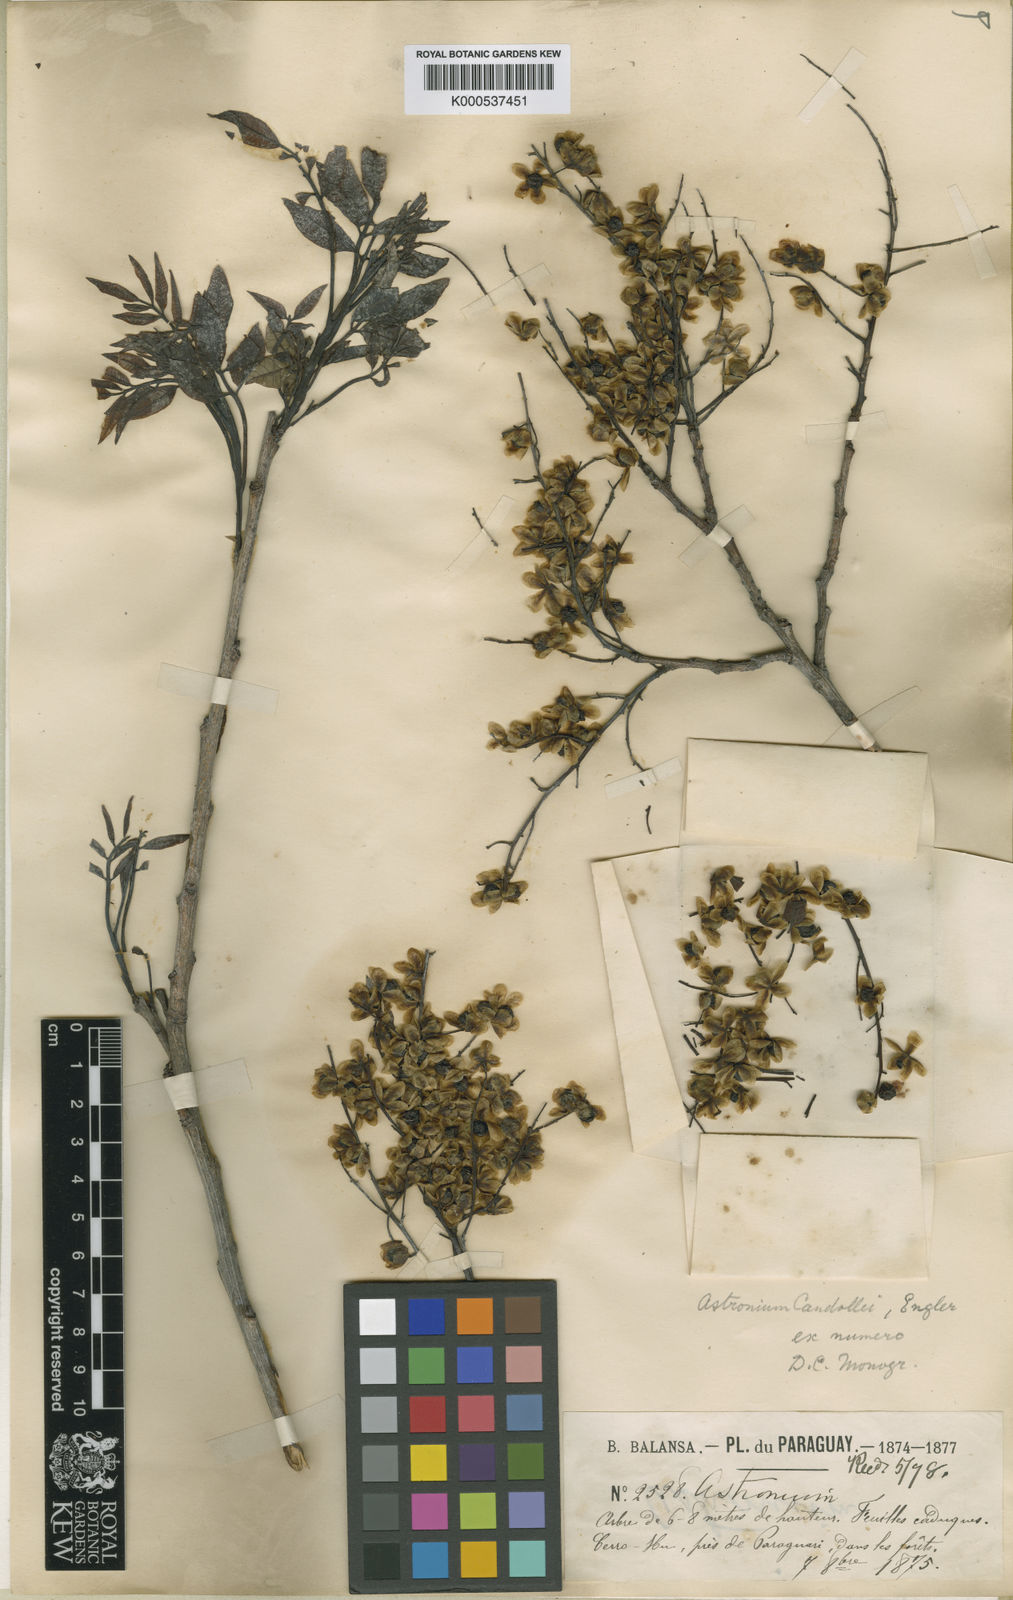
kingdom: Plantae
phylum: Tracheophyta
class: Magnoliopsida
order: Sapindales
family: Anacardiaceae
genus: Astronium
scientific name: Astronium
